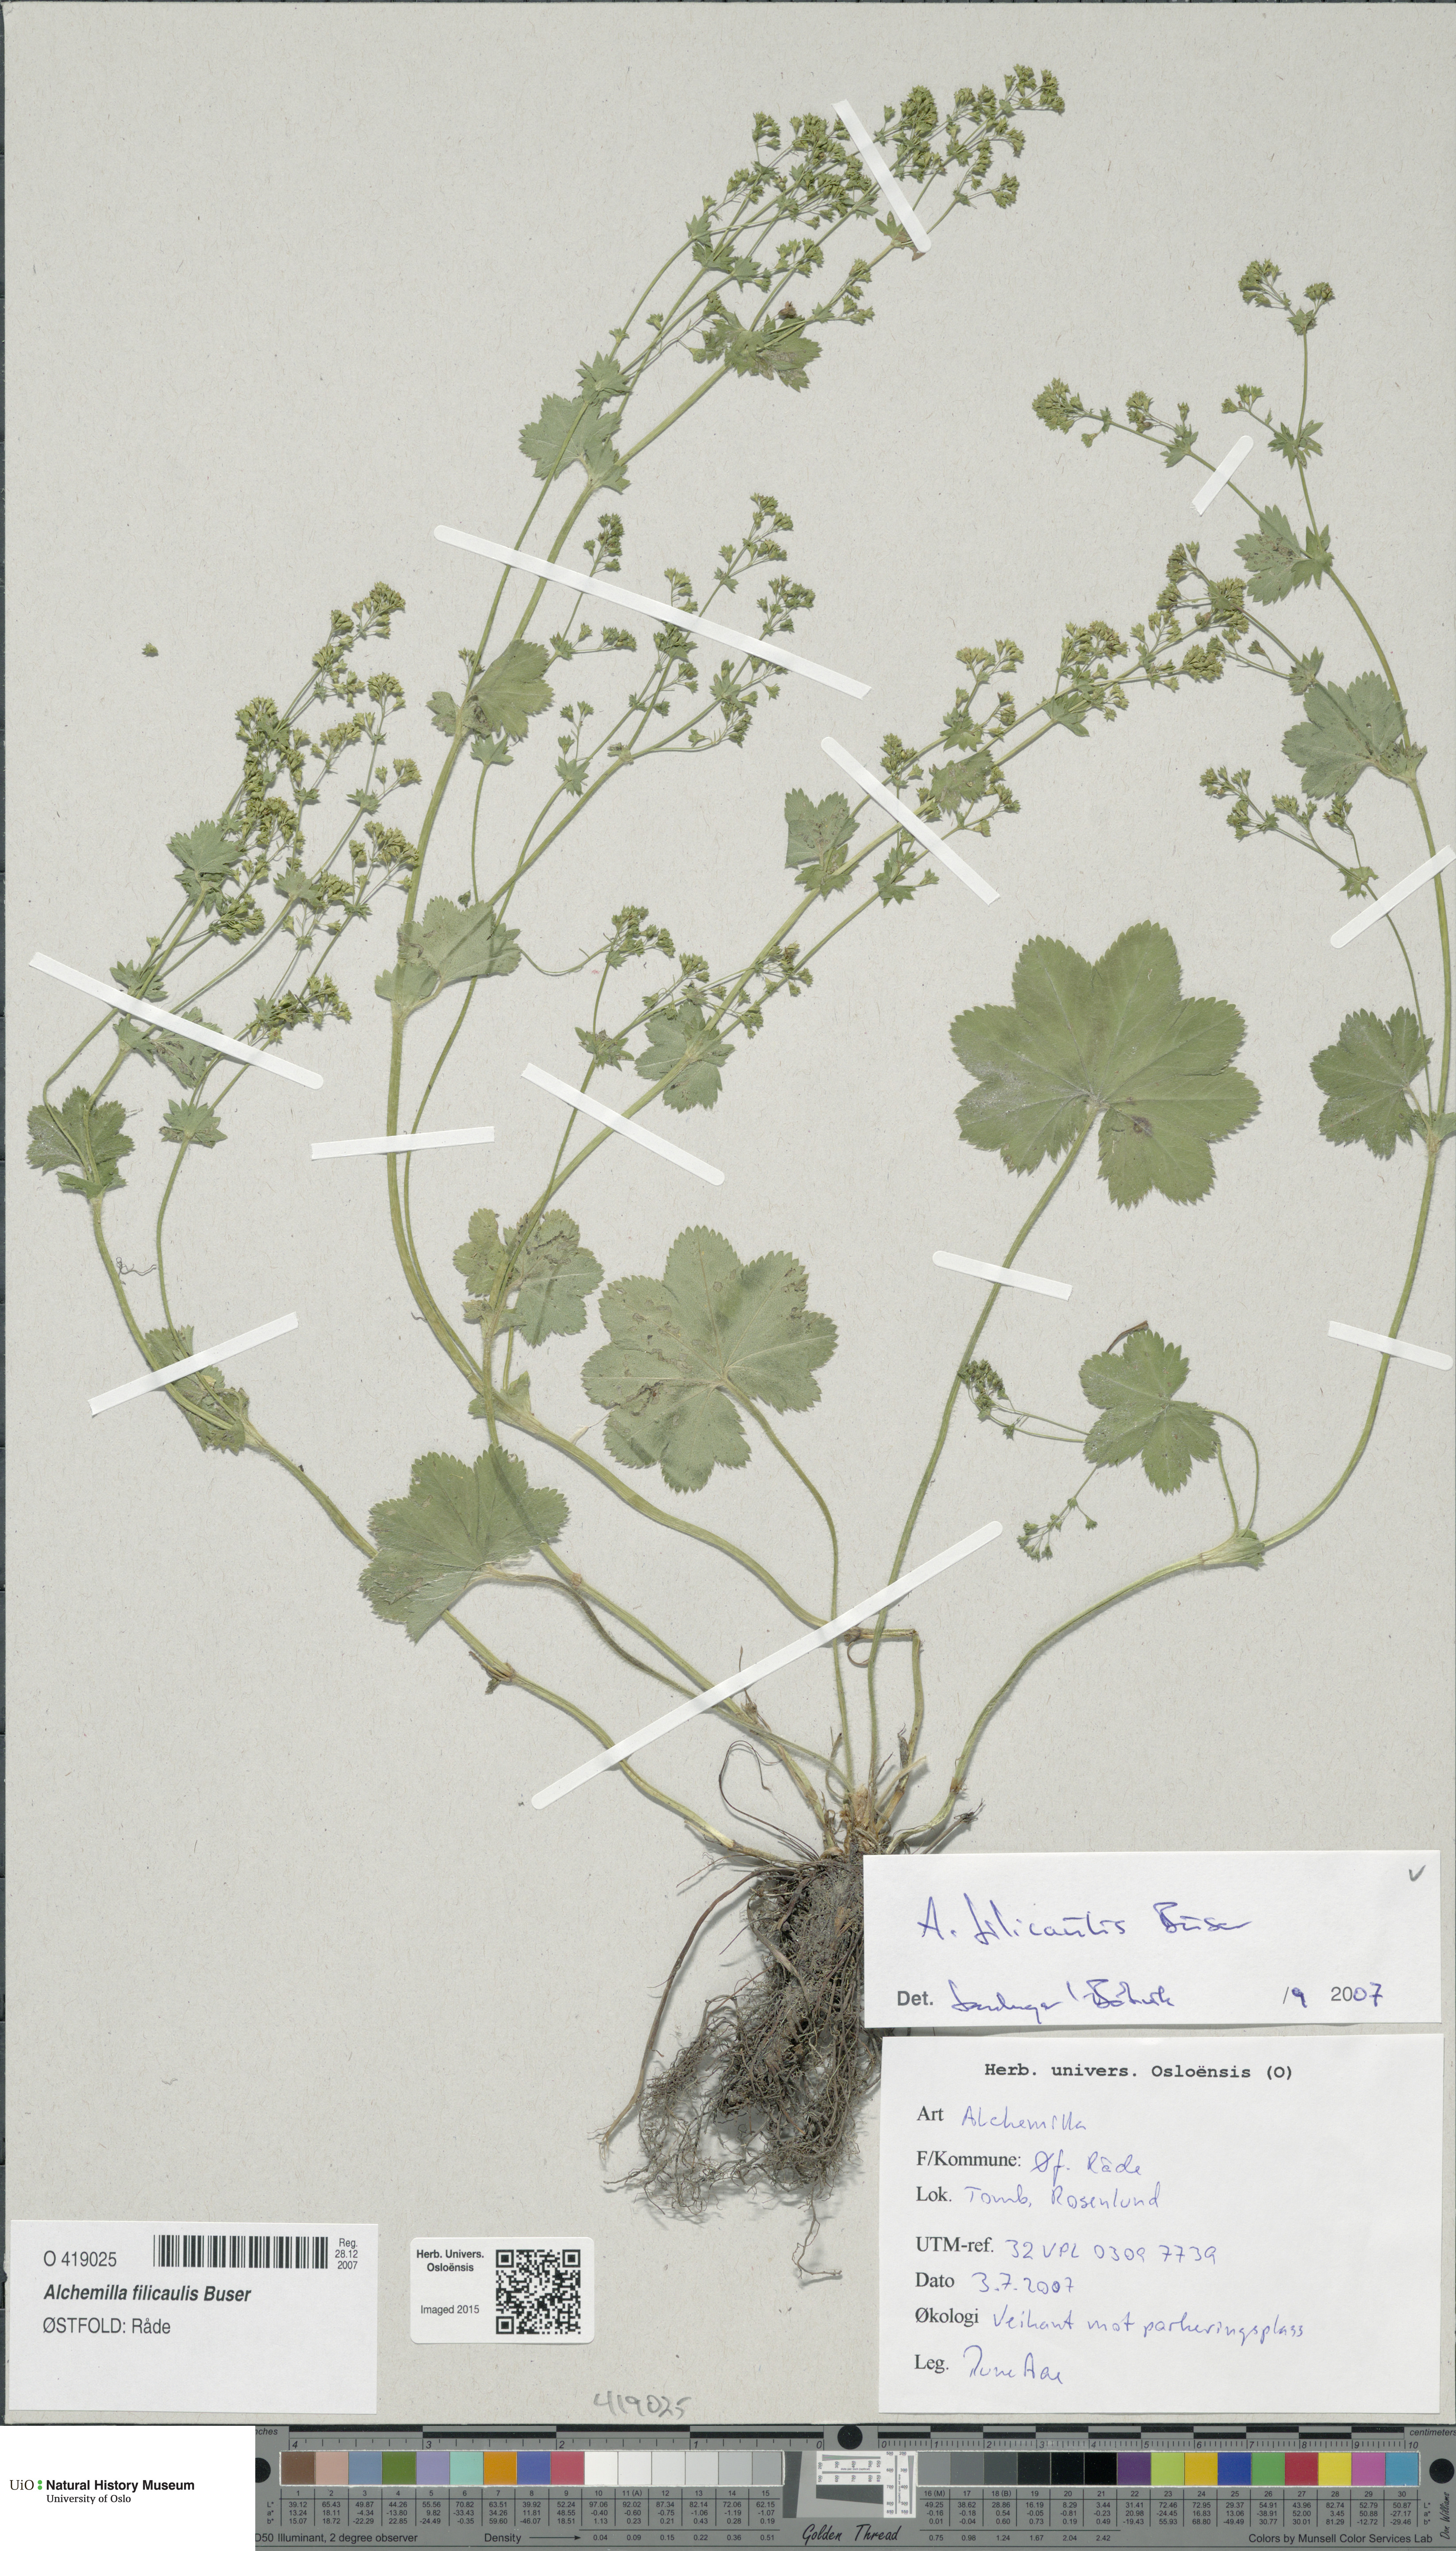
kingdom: Plantae
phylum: Tracheophyta
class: Magnoliopsida
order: Rosales
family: Rosaceae
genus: Alchemilla
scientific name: Alchemilla filicaulis
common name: Hairy lady's-mantle
